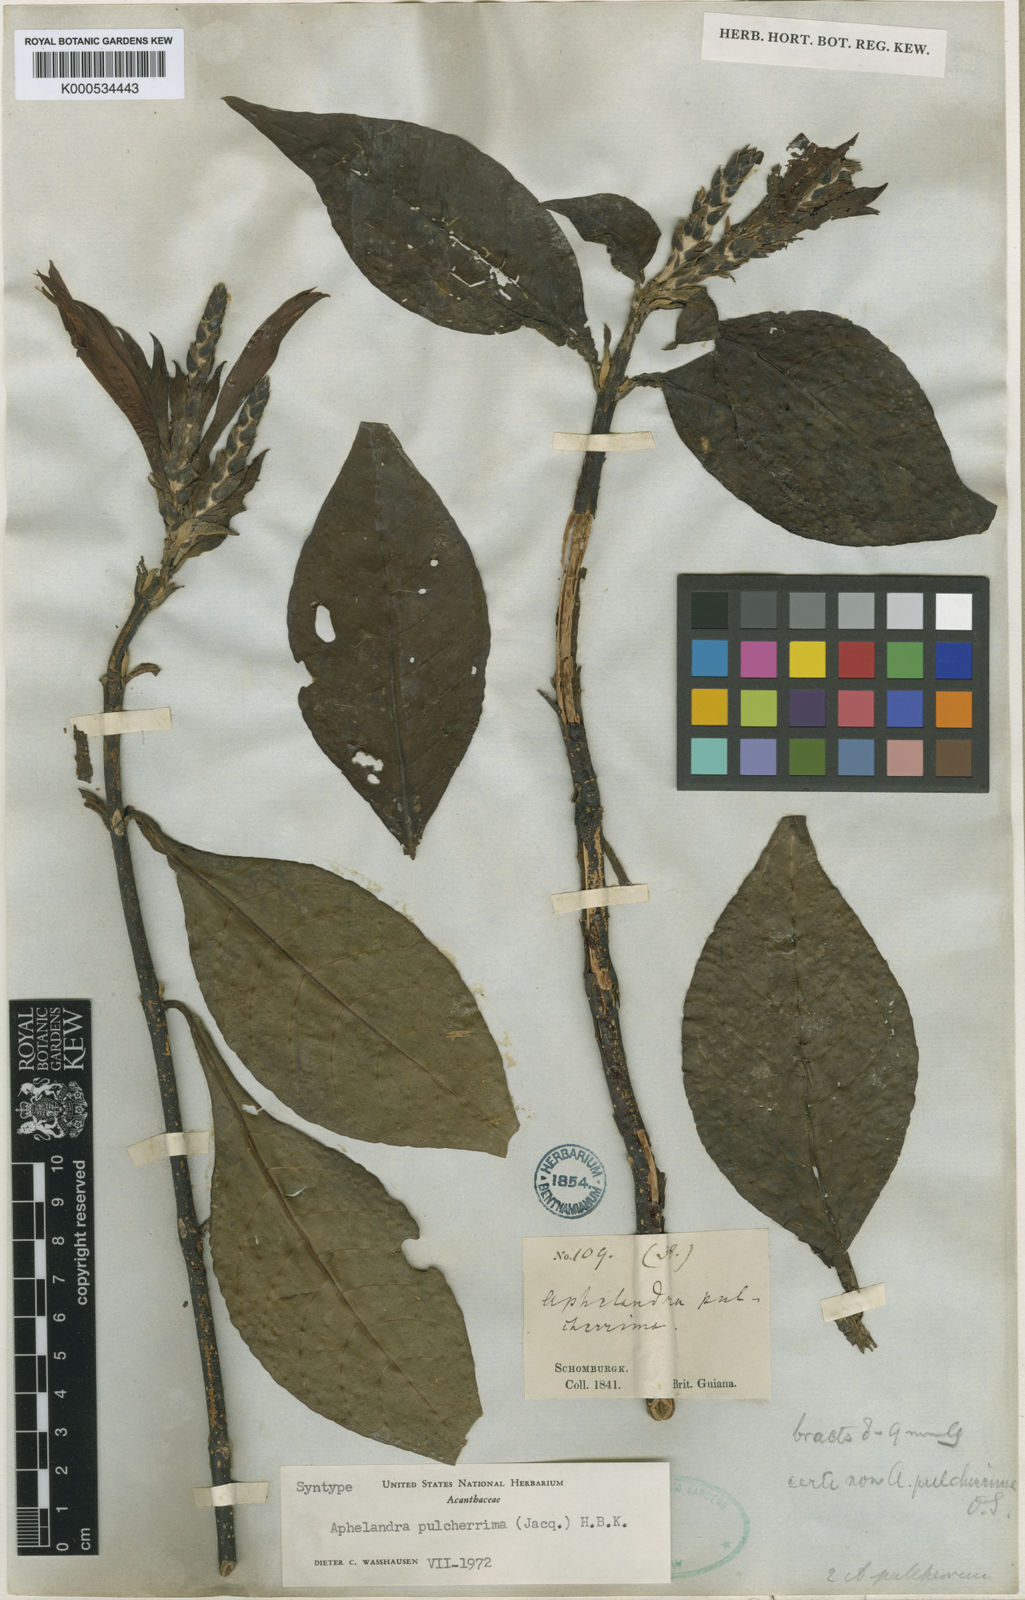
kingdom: Plantae
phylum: Tracheophyta
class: Magnoliopsida
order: Lamiales
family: Acanthaceae
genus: Aphelandra
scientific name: Aphelandra pulcherrima
